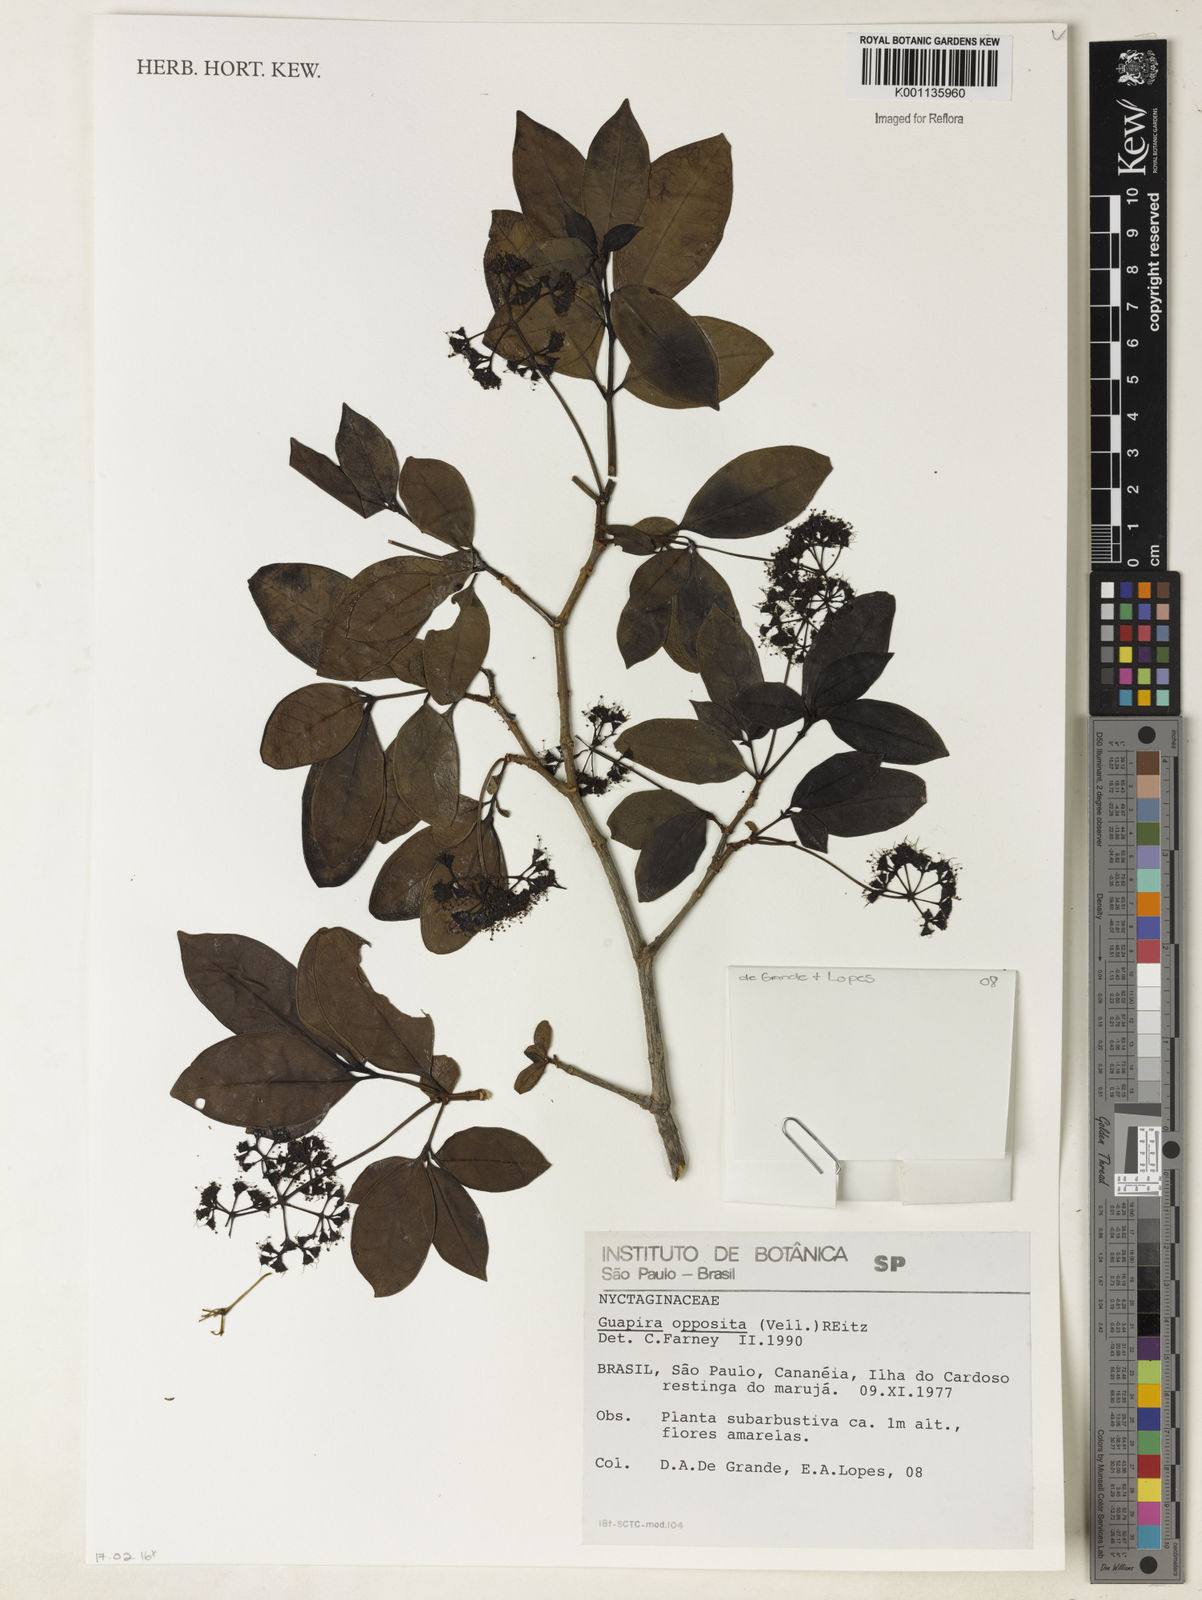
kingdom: Plantae
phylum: Tracheophyta
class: Magnoliopsida
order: Caryophyllales
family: Nyctaginaceae
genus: Guapira
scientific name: Guapira opposita
